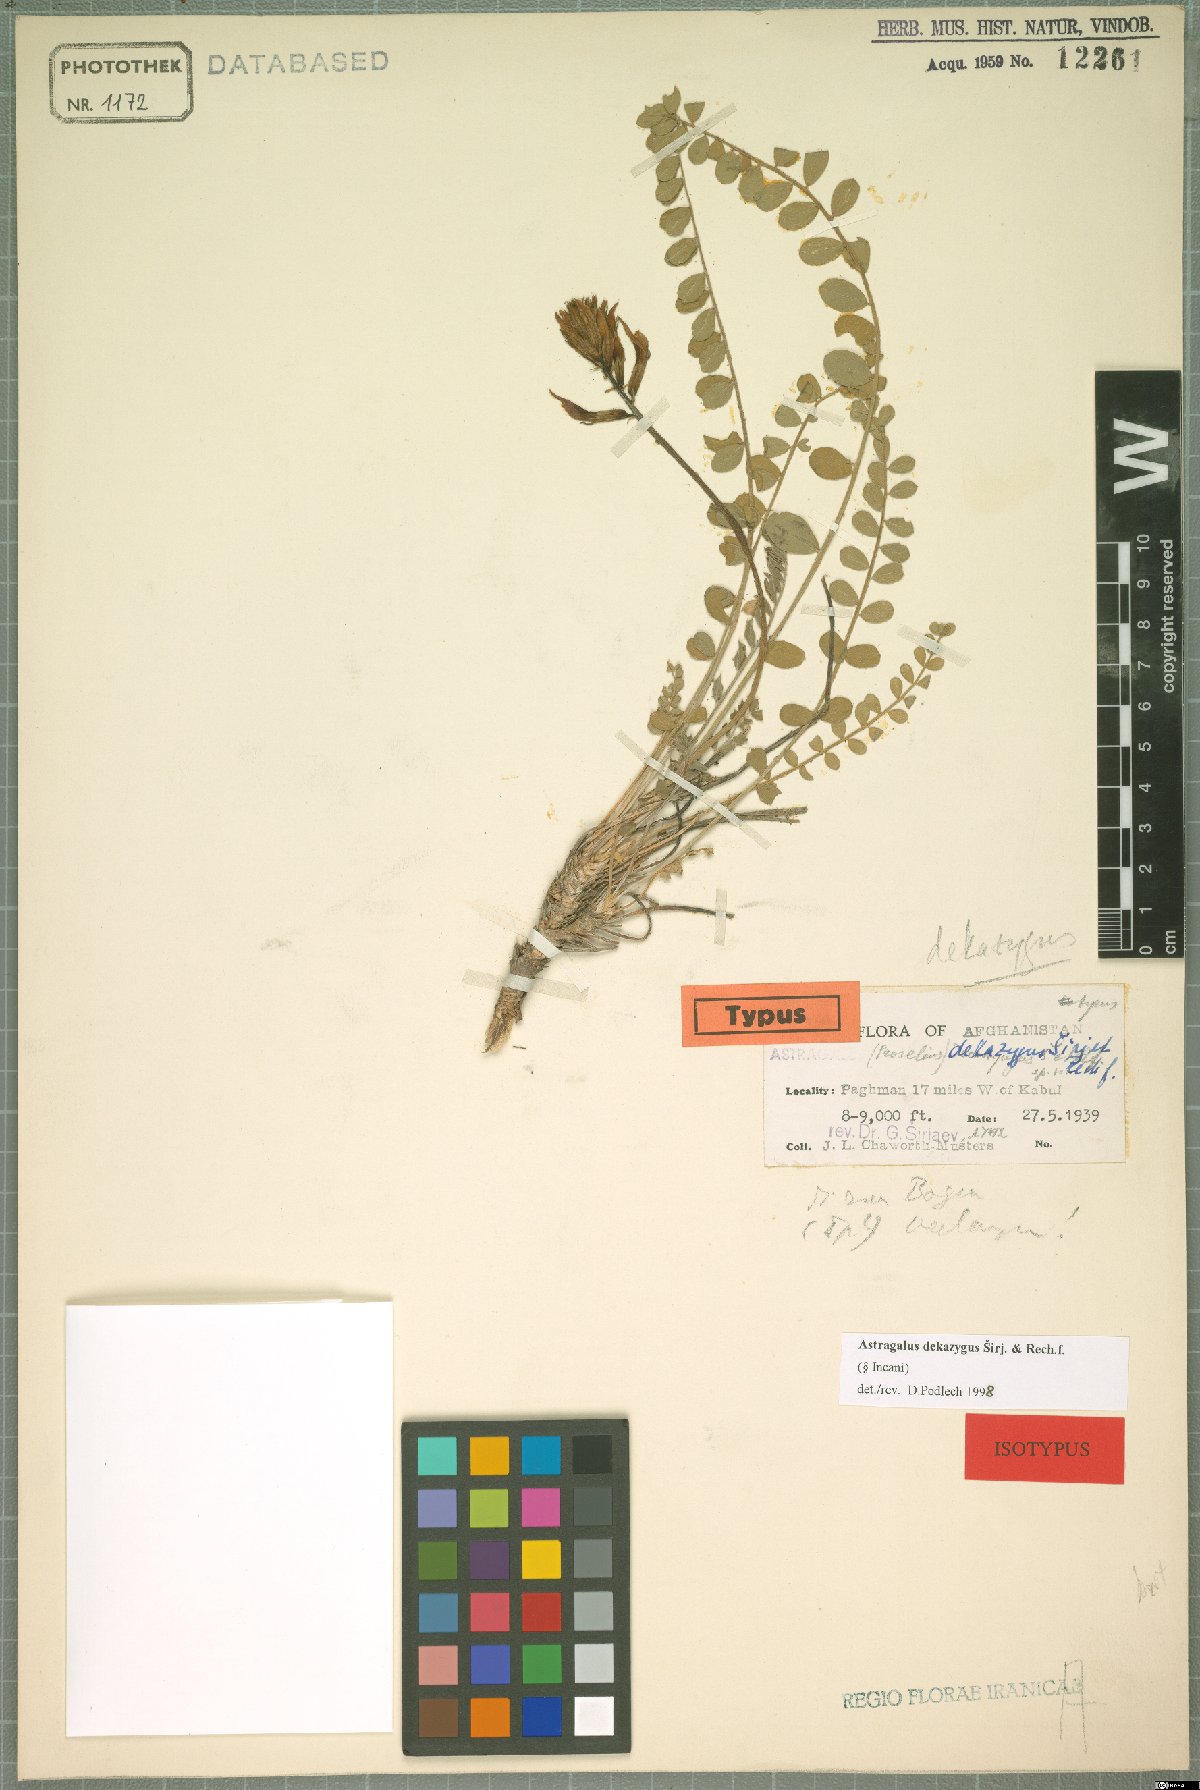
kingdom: Plantae
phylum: Tracheophyta
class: Magnoliopsida
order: Fabales
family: Fabaceae
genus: Astragalus
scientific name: Astragalus dekazygus
